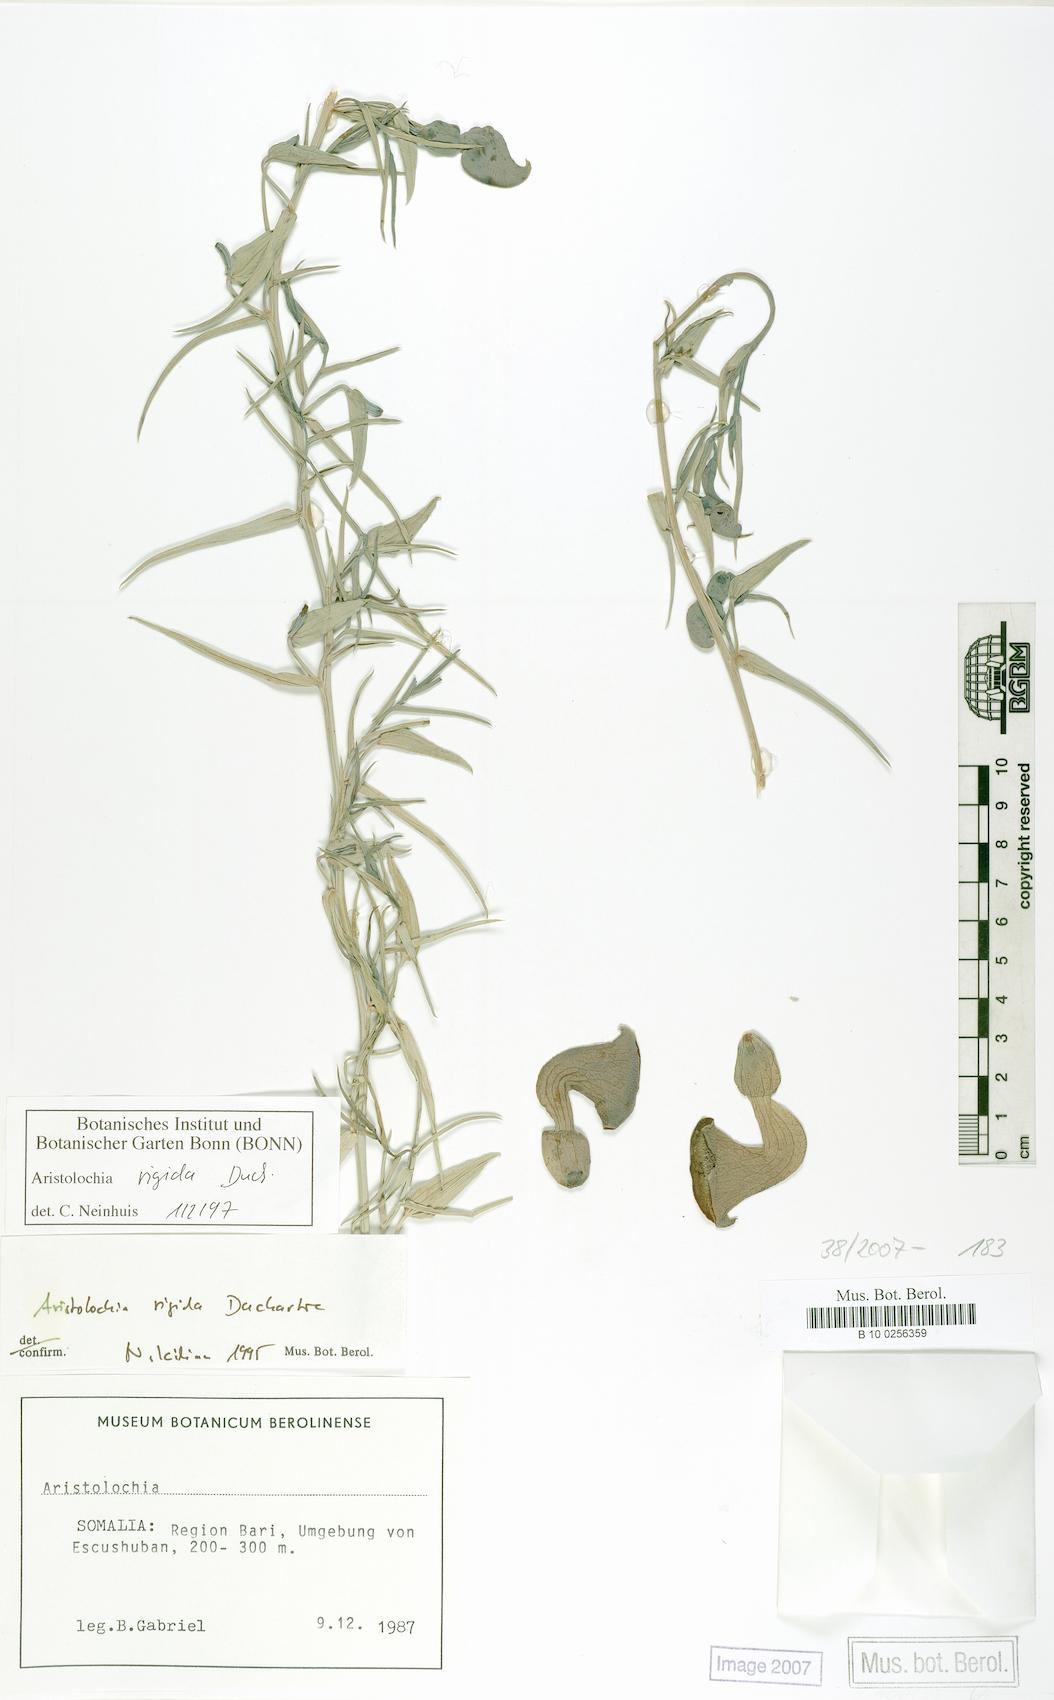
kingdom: Plantae
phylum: Tracheophyta
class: Magnoliopsida
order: Piperales
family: Aristolochiaceae
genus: Aristolochia
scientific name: Aristolochia rigida
